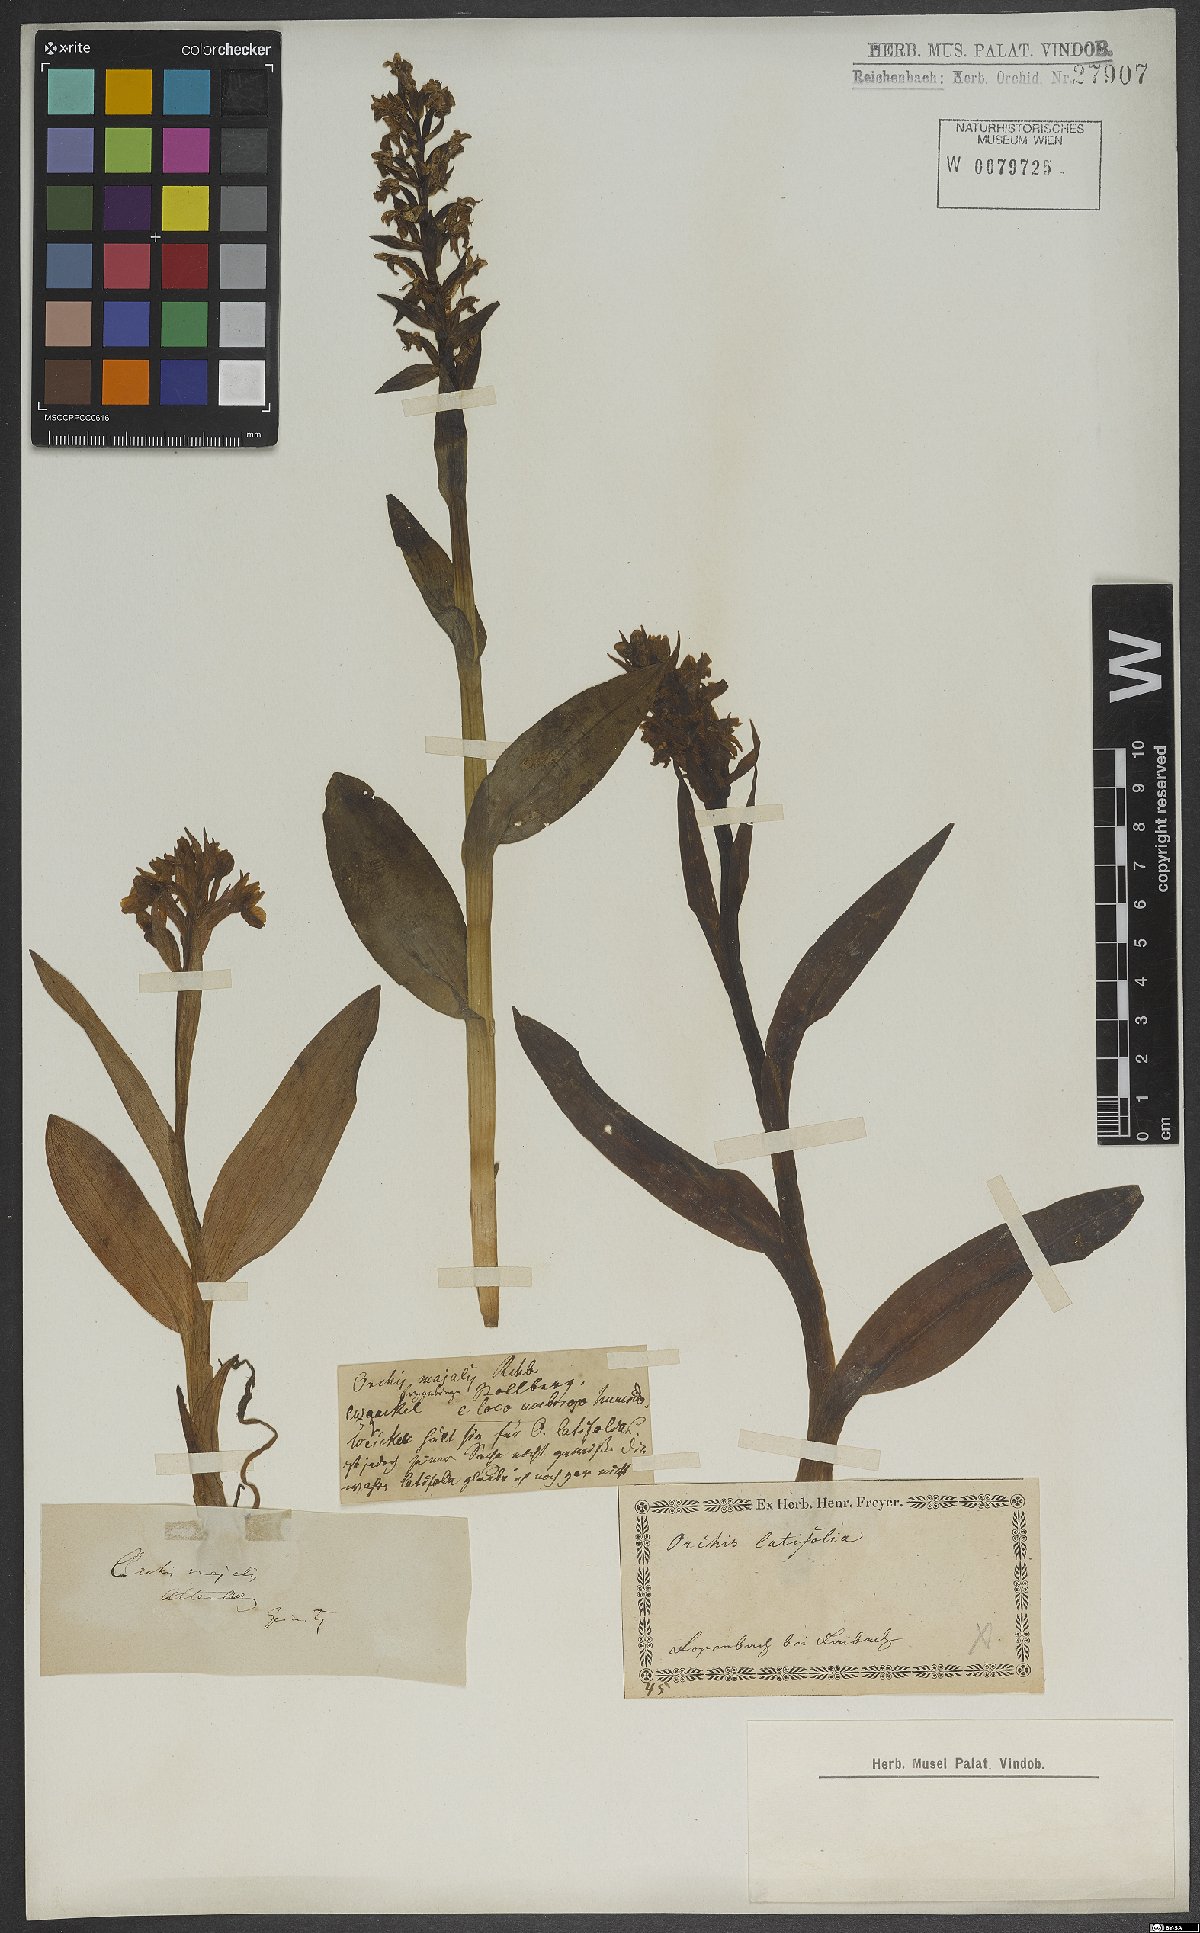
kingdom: Plantae
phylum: Tracheophyta
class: Liliopsida
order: Asparagales
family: Orchidaceae
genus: Dactylorhiza
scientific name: Dactylorhiza majalis
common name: Marsh orchid
